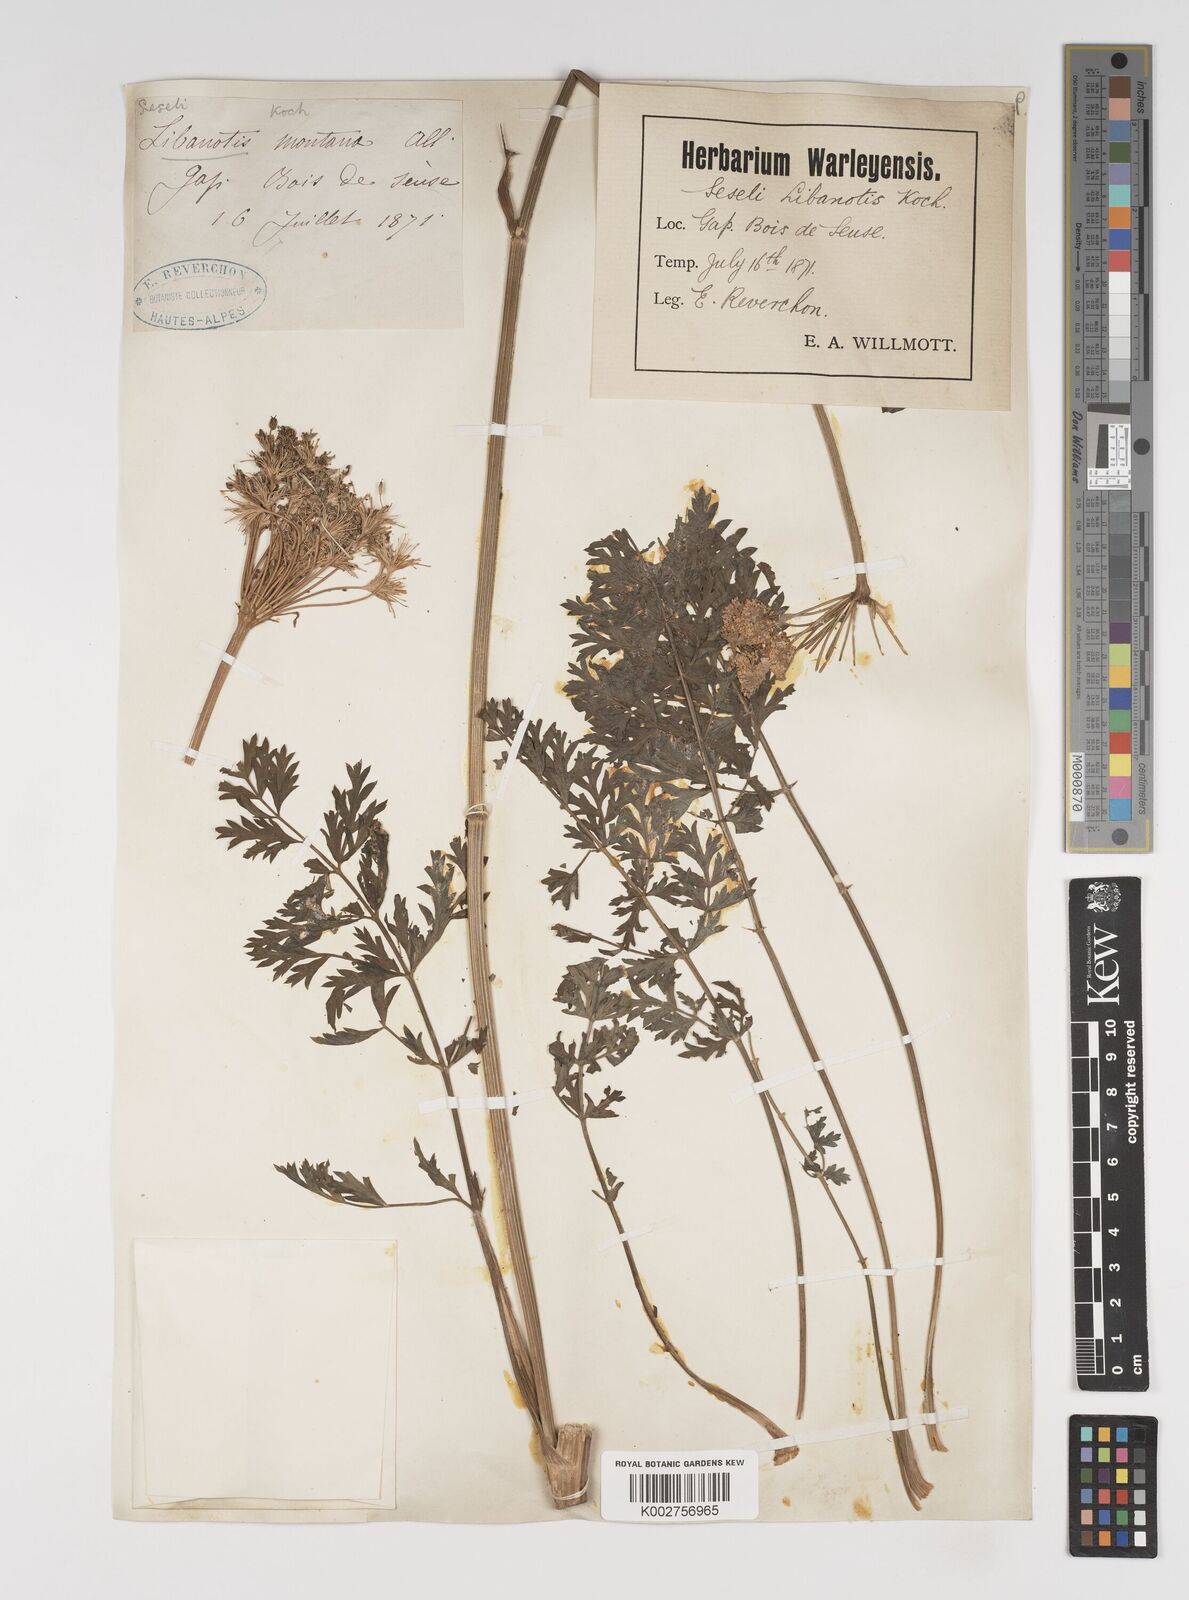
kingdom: Plantae
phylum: Tracheophyta
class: Magnoliopsida
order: Apiales
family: Apiaceae
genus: Seseli
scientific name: Seseli libanotis
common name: Mooncarrot
